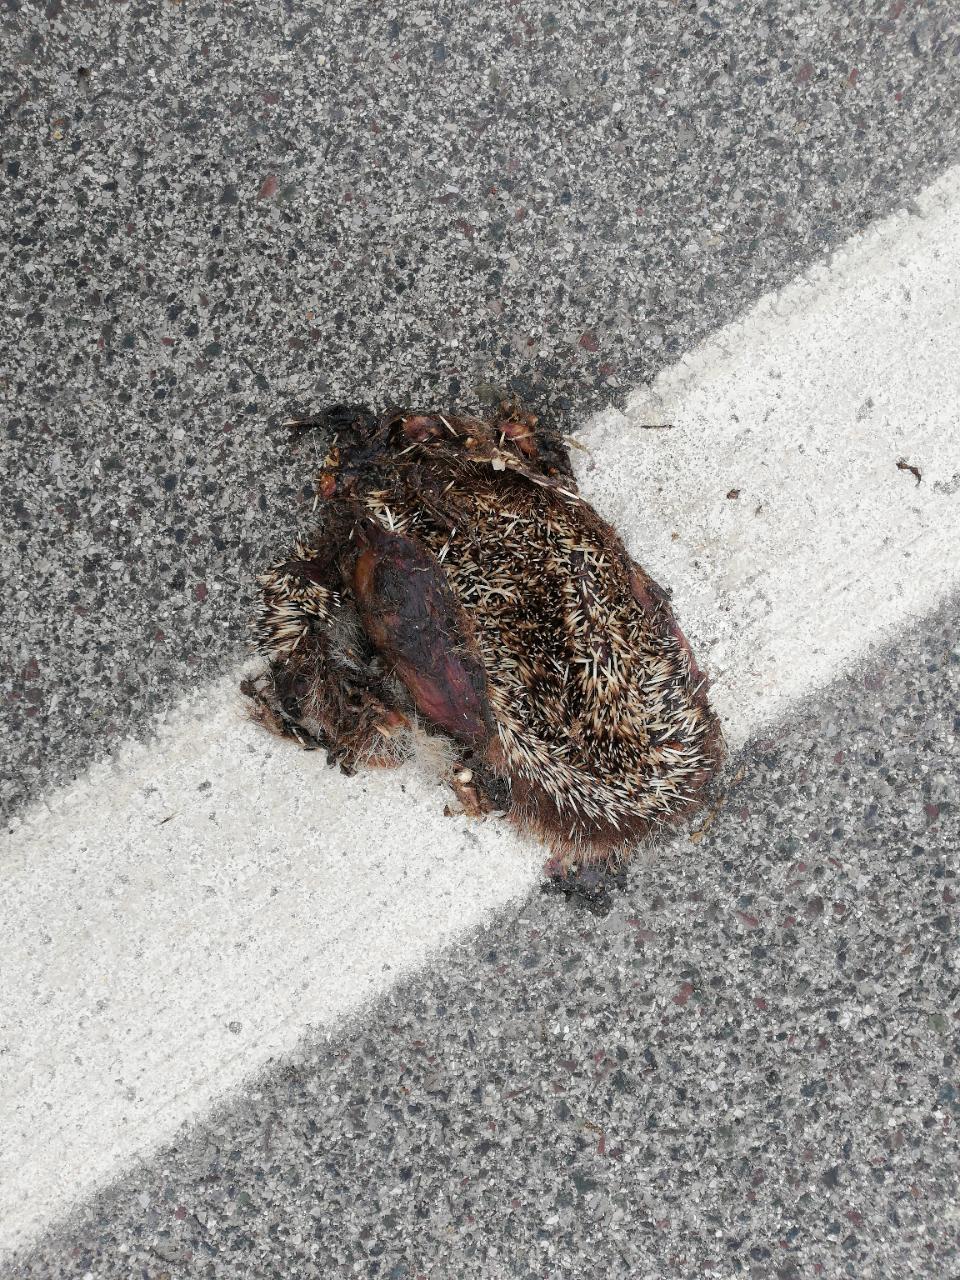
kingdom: Animalia
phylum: Chordata
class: Mammalia
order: Erinaceomorpha
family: Erinaceidae
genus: Erinaceus
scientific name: Erinaceus
